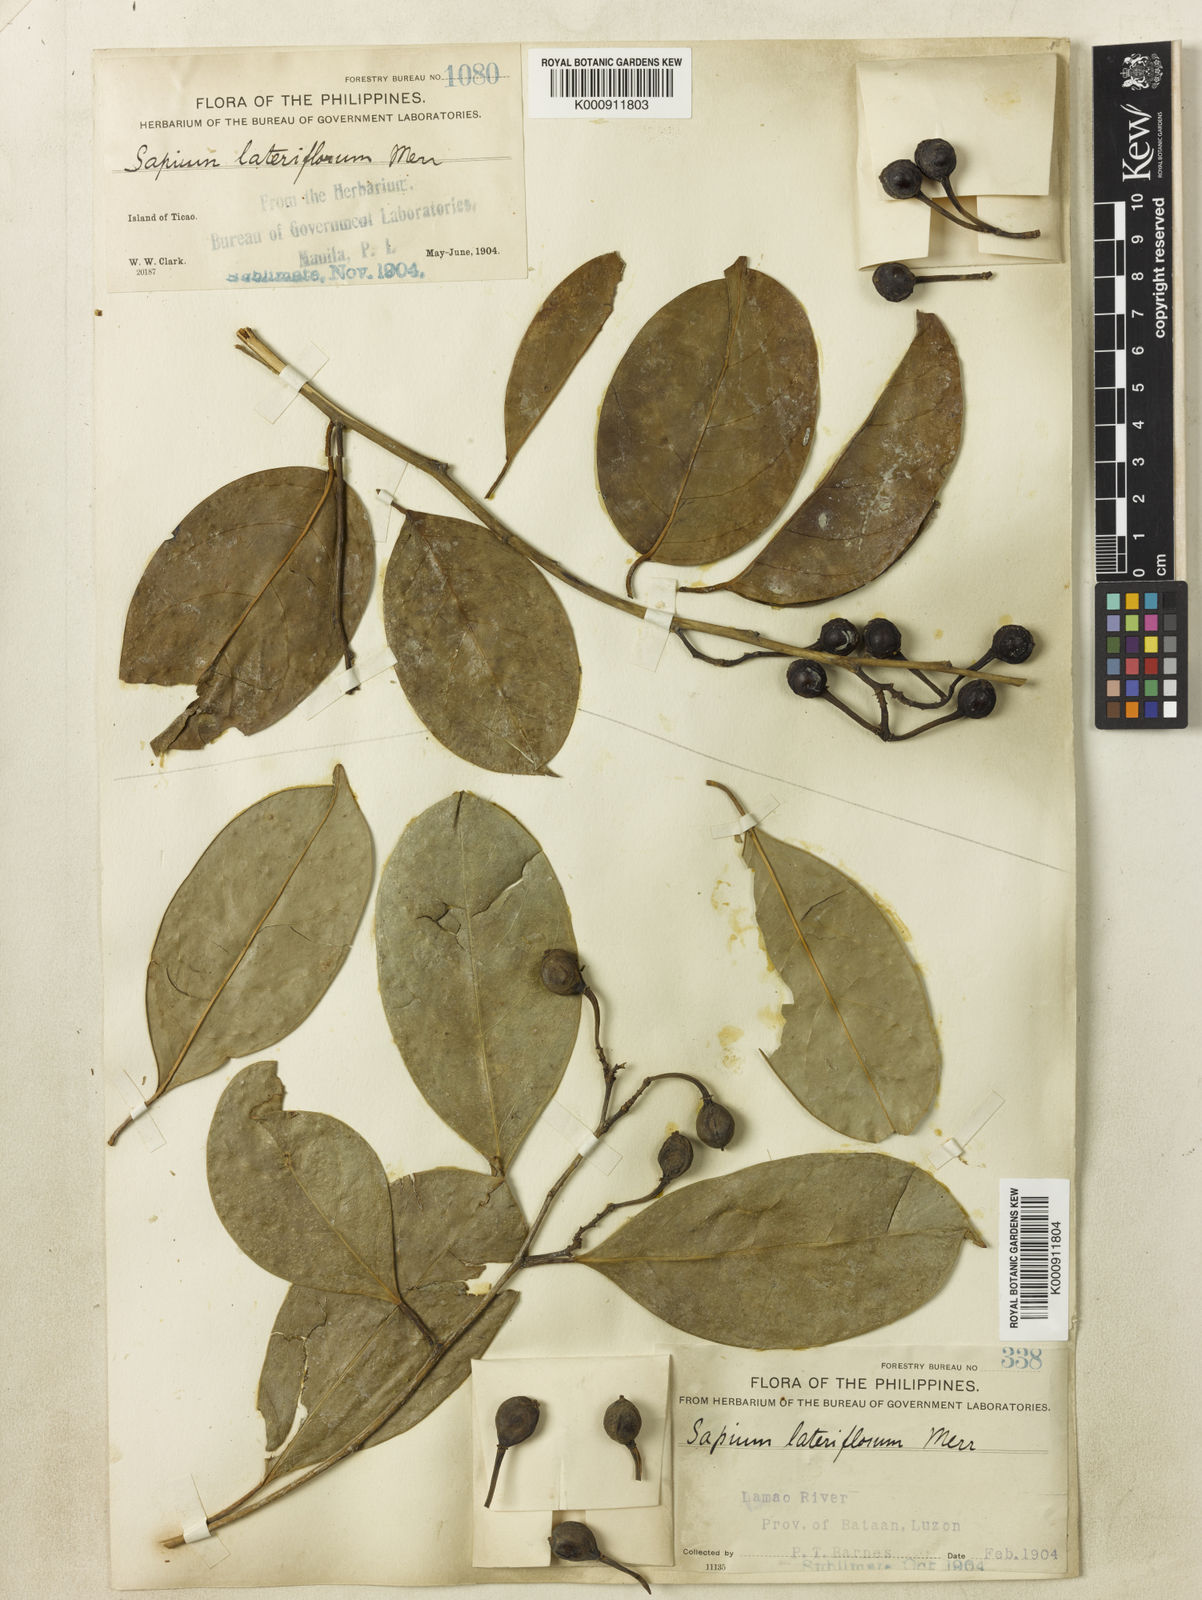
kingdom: Plantae
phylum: Tracheophyta
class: Magnoliopsida
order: Malpighiales
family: Euphorbiaceae
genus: Balakata
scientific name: Balakata luzonica
